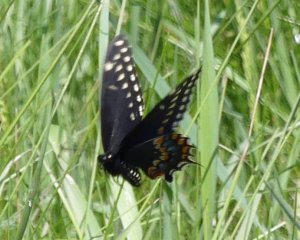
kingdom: Animalia
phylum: Arthropoda
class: Insecta
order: Lepidoptera
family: Papilionidae
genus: Papilio
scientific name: Papilio polyxenes
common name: Black Swallowtail
